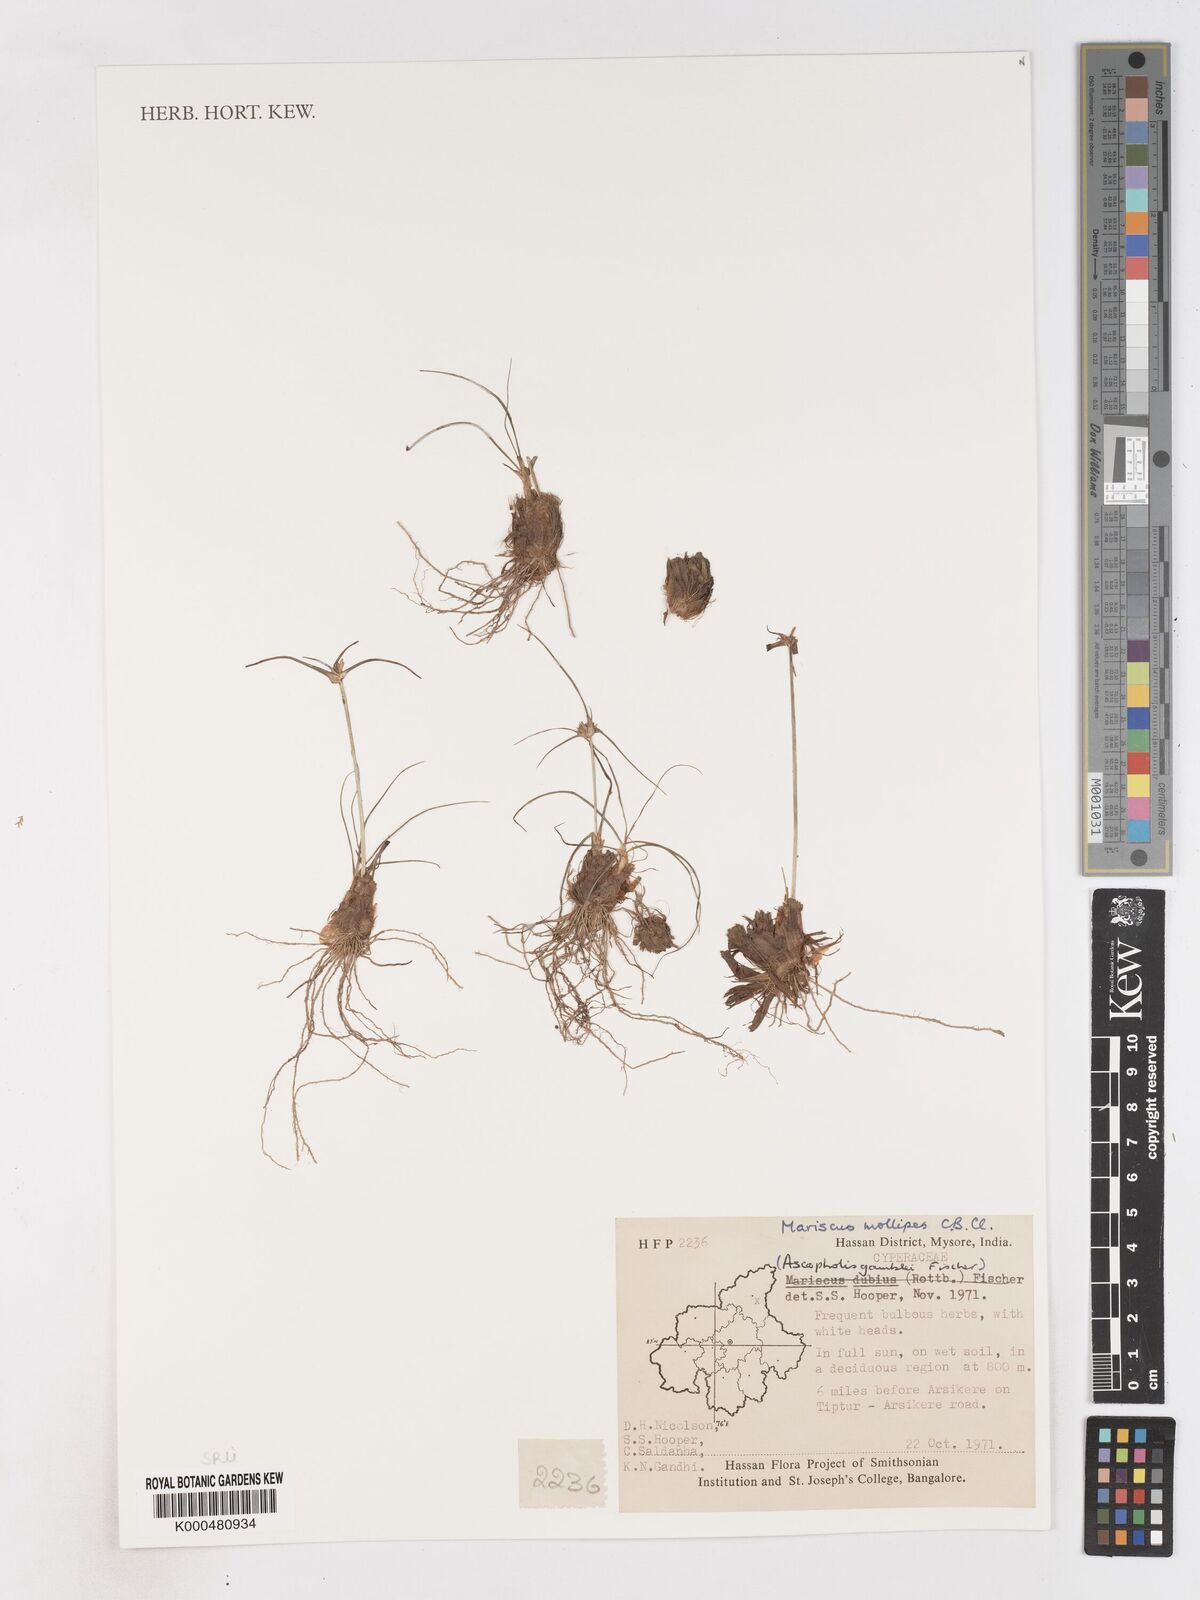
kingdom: Plantae
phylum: Tracheophyta
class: Liliopsida
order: Poales
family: Cyperaceae
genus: Cyperus
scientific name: Cyperus mollipes
